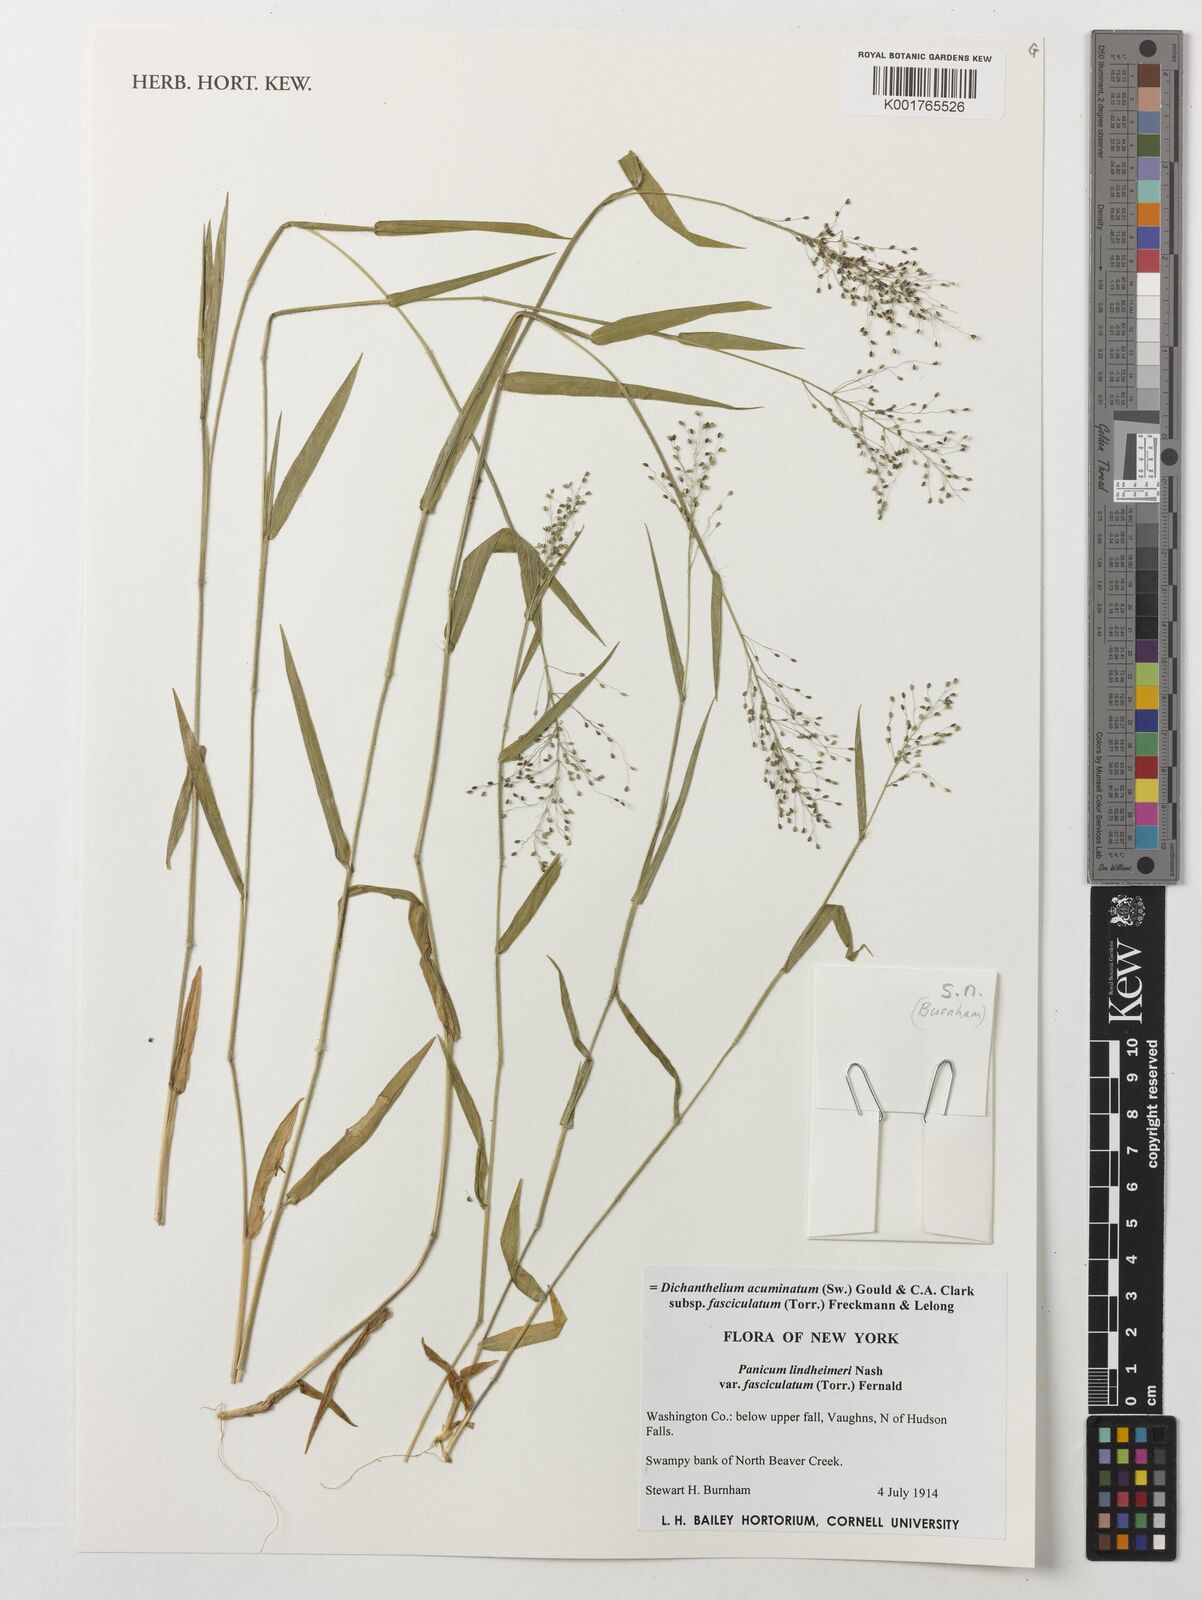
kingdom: Plantae
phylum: Tracheophyta
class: Liliopsida
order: Poales
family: Poaceae
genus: Dichanthelium
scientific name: Dichanthelium lanuginosum
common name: Woolly panicgrass
